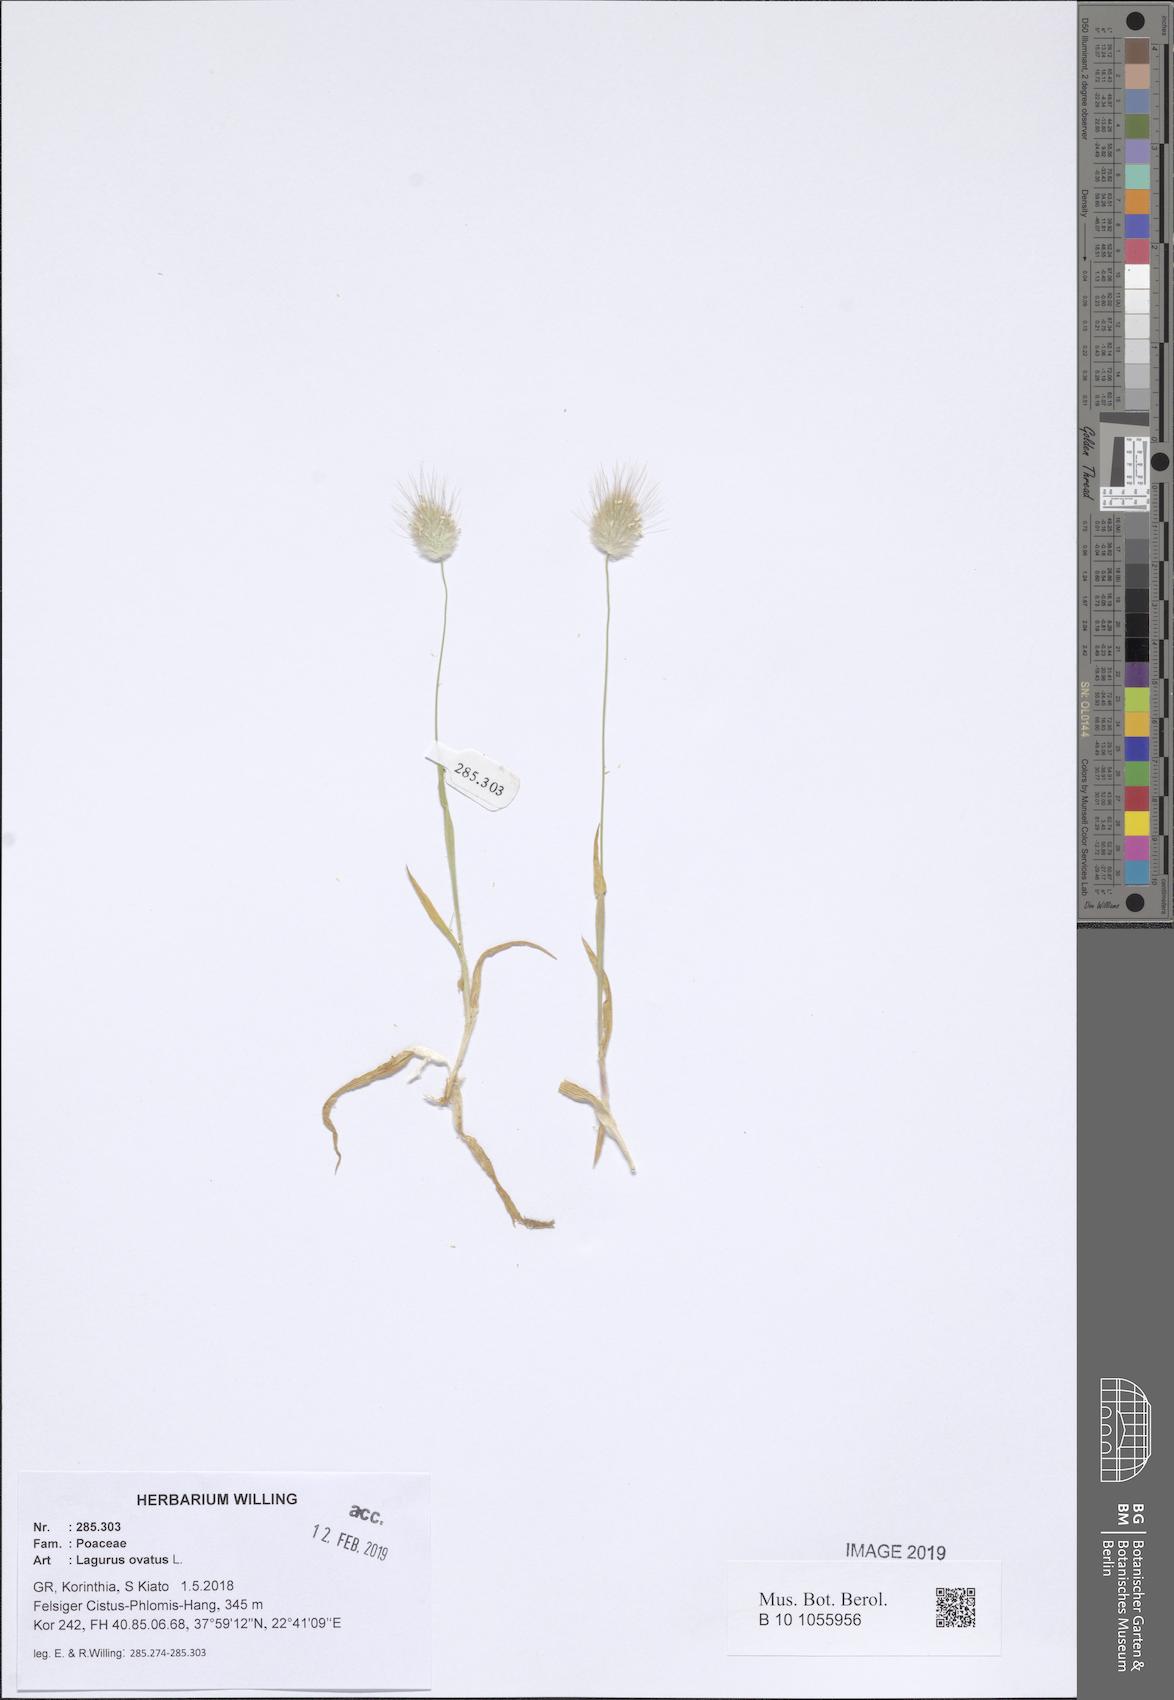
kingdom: Plantae
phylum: Tracheophyta
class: Liliopsida
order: Poales
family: Poaceae
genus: Lagurus
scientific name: Lagurus ovatus
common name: Hare's-tail
